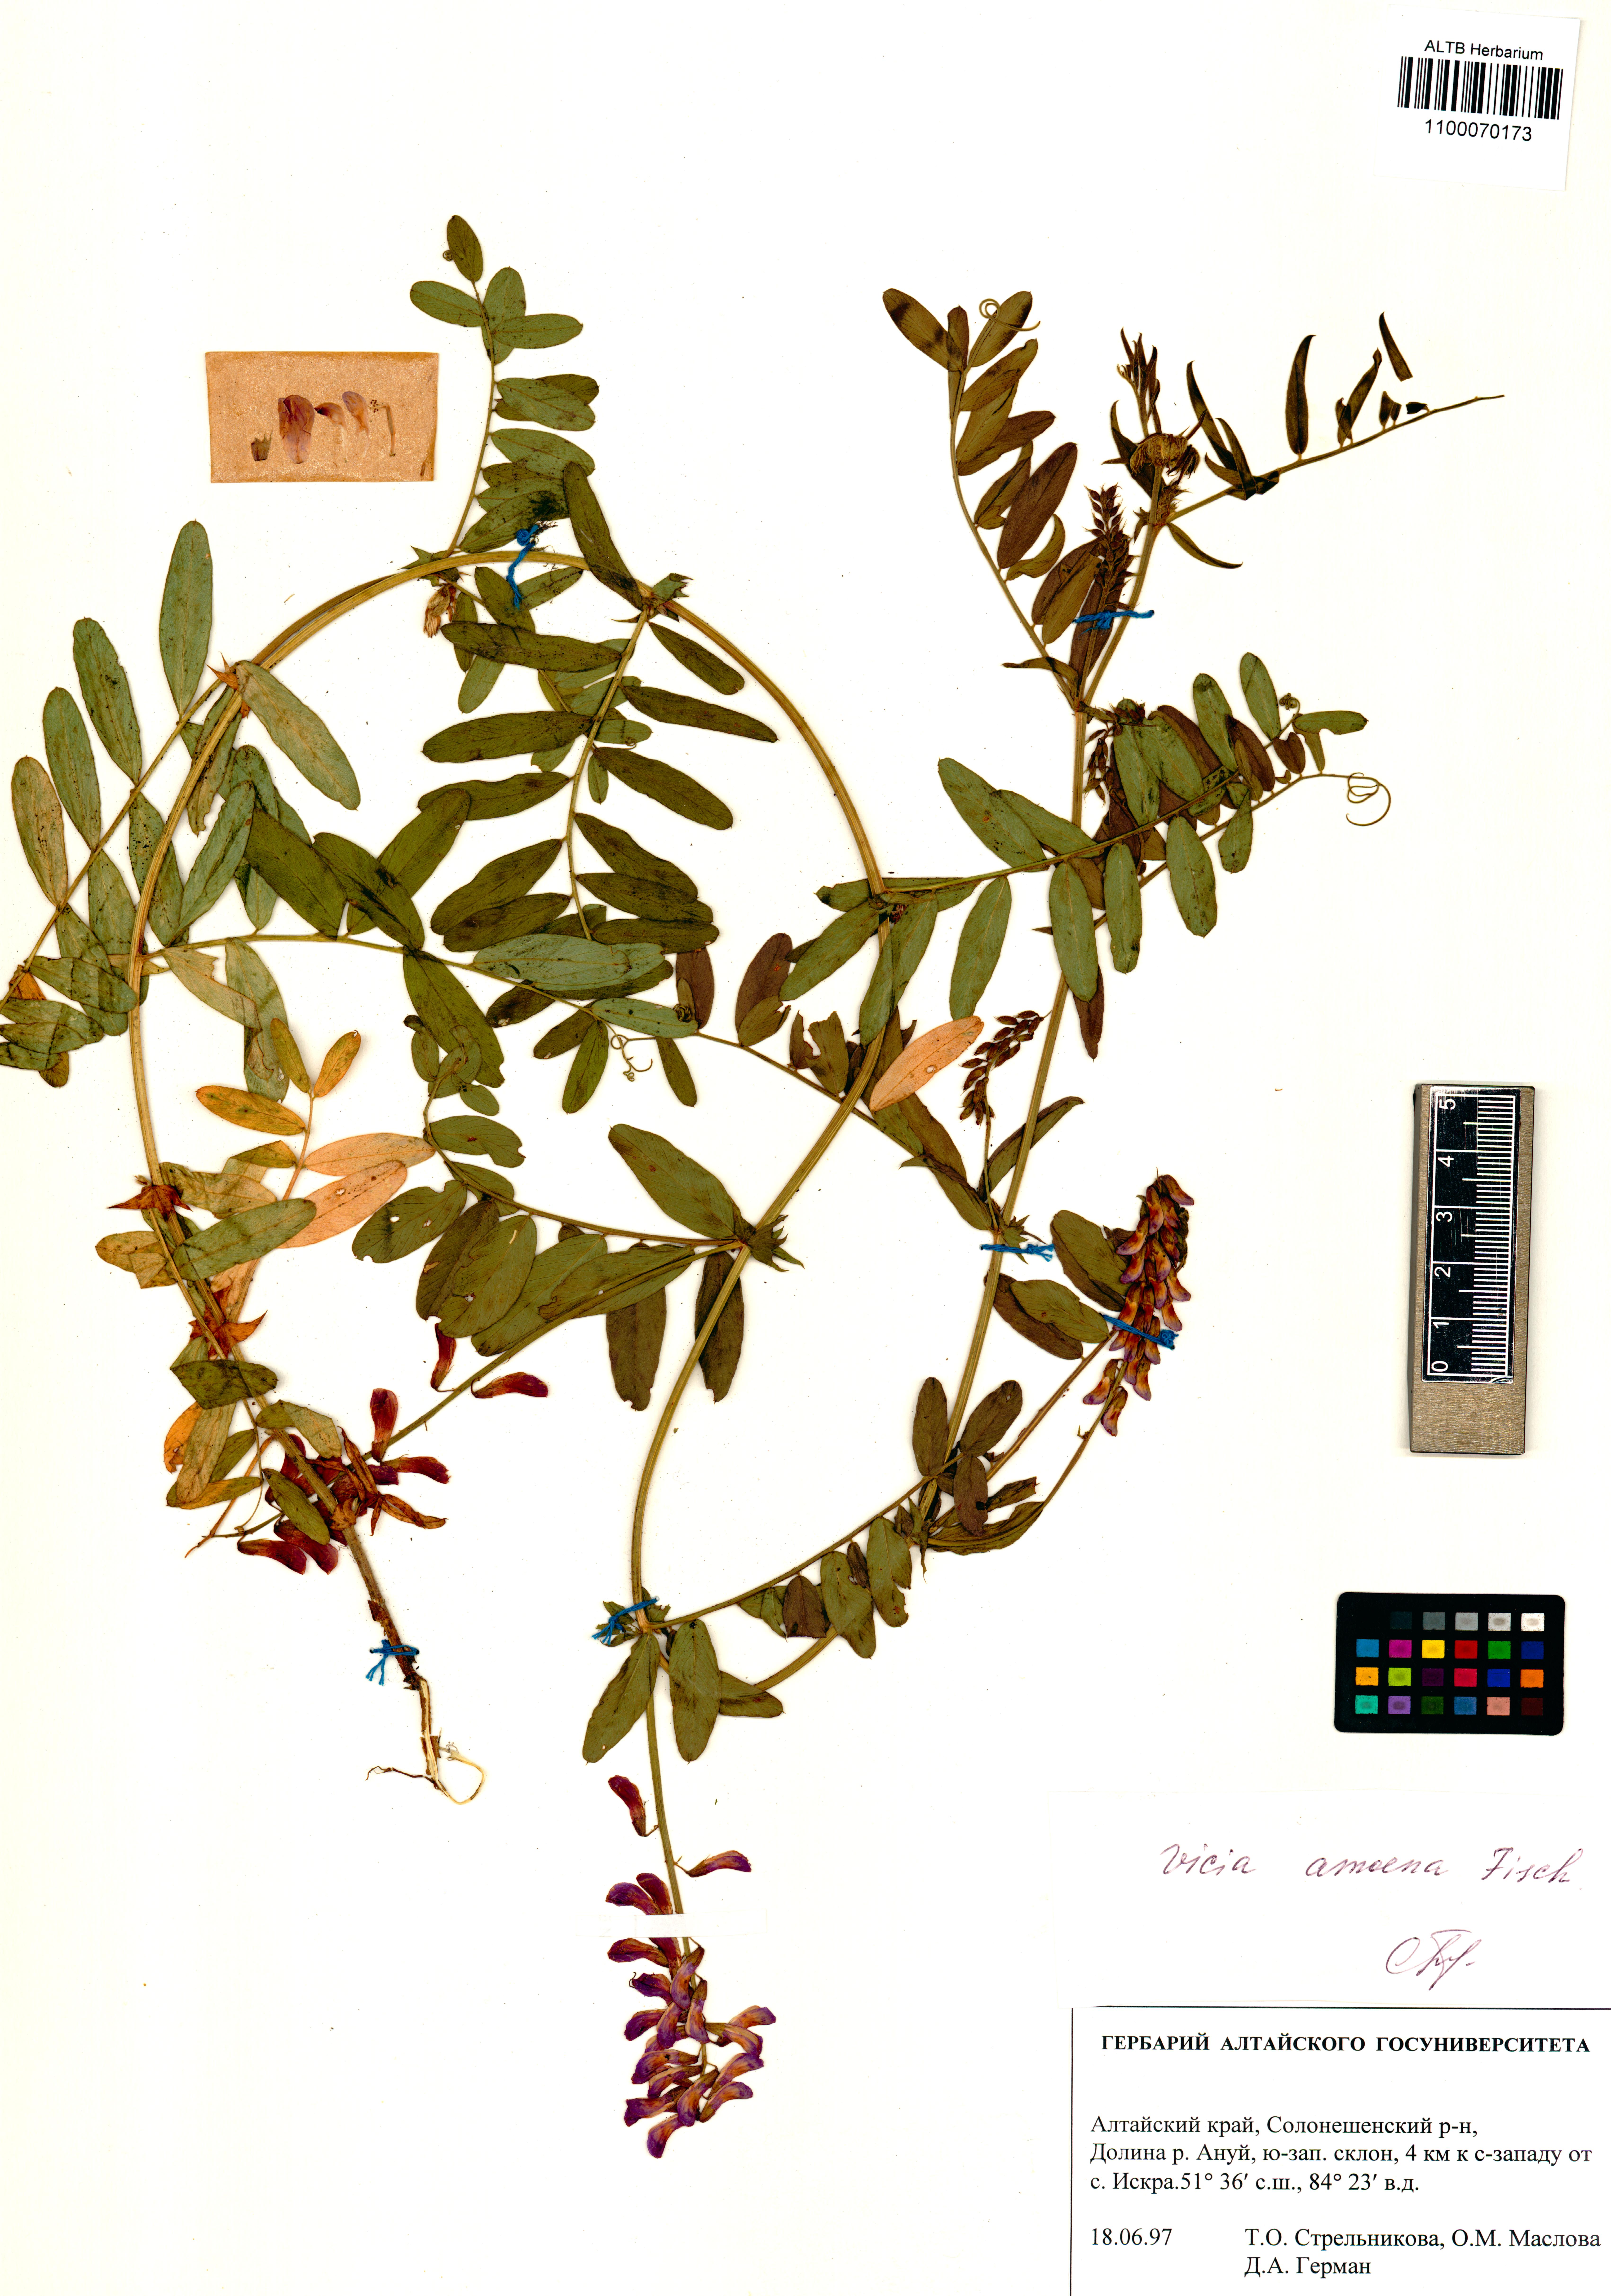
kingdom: Plantae
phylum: Tracheophyta
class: Magnoliopsida
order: Fabales
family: Fabaceae
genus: Vicia
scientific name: Vicia amoena
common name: Cheder ebs
